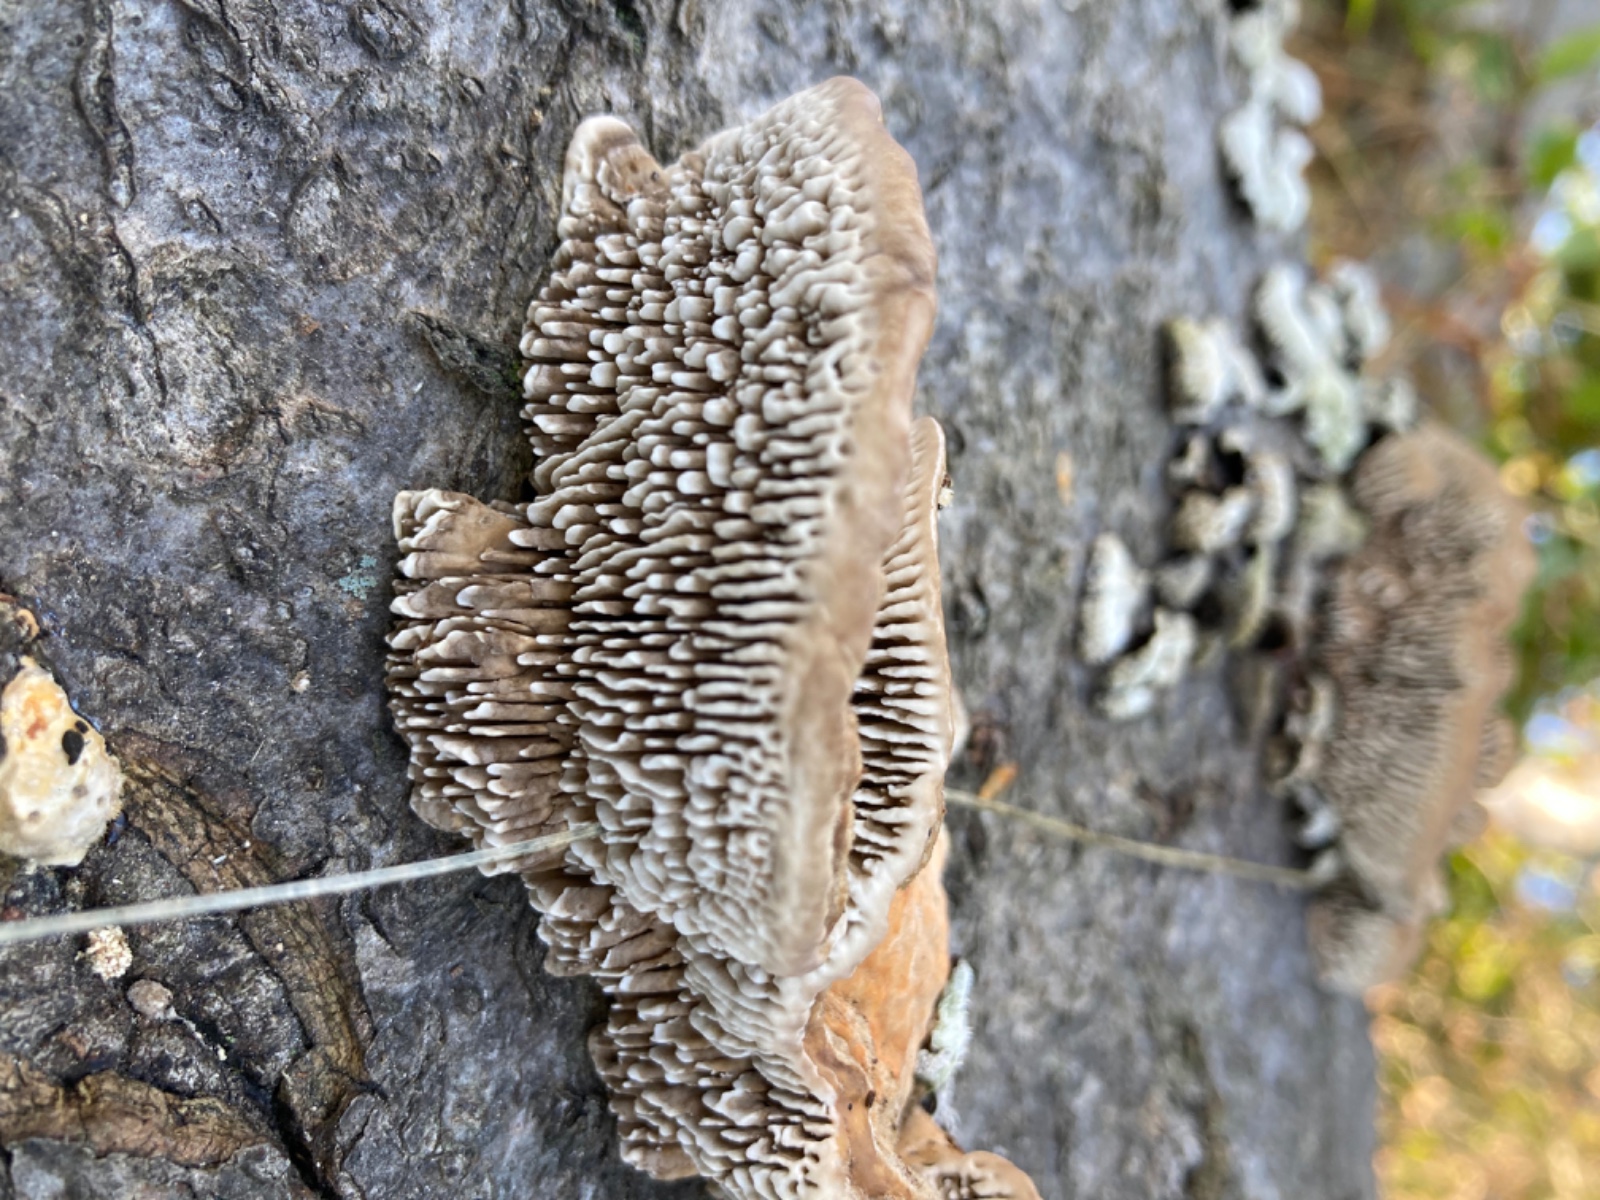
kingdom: Fungi
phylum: Basidiomycota
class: Agaricomycetes
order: Polyporales
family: Polyporaceae
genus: Lenzites
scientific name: Lenzites betulinus
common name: birke-læderporesvamp
